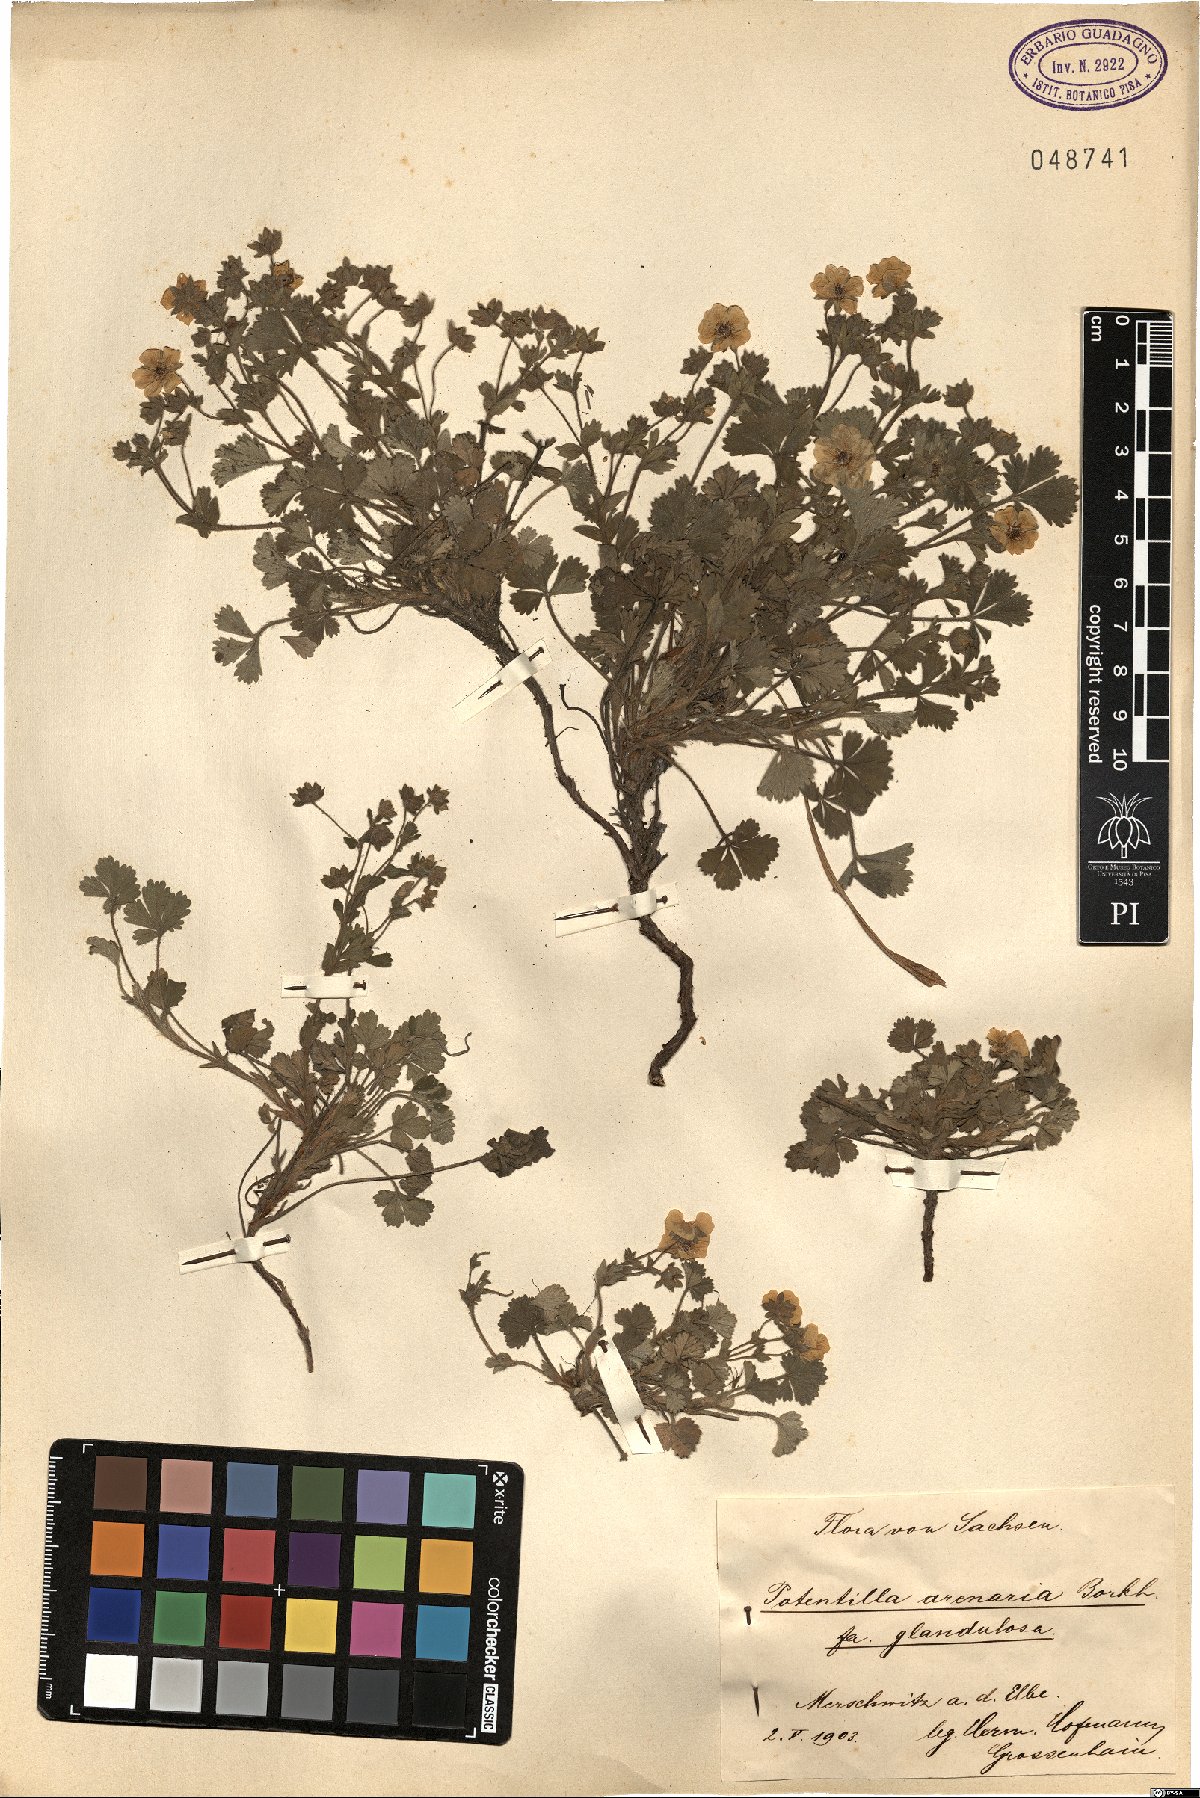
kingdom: Plantae
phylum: Tracheophyta
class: Magnoliopsida
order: Rosales
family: Rosaceae
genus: Potentilla
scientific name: Potentilla cinerea
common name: Ashy cinquefoil
